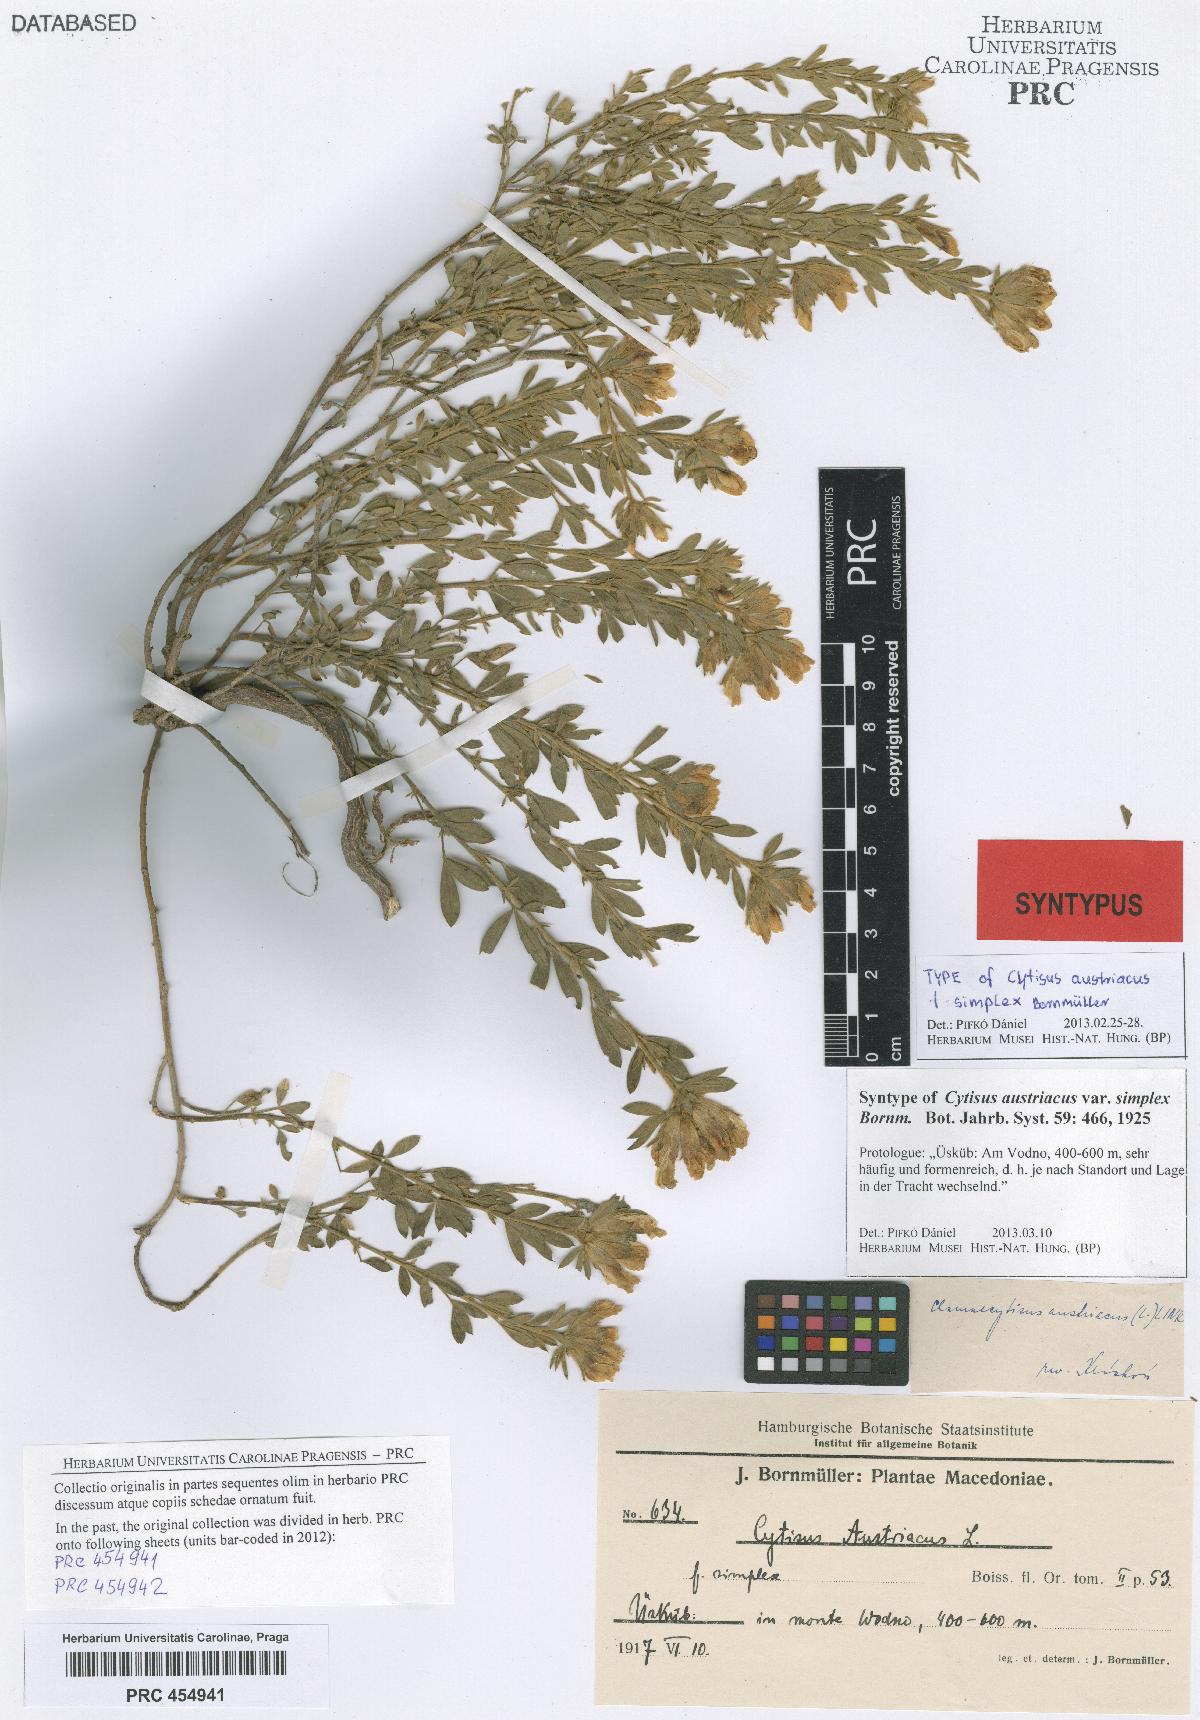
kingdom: Plantae
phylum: Tracheophyta
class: Magnoliopsida
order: Fabales
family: Fabaceae
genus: Chamaecytisus
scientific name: Chamaecytisus austriacus
